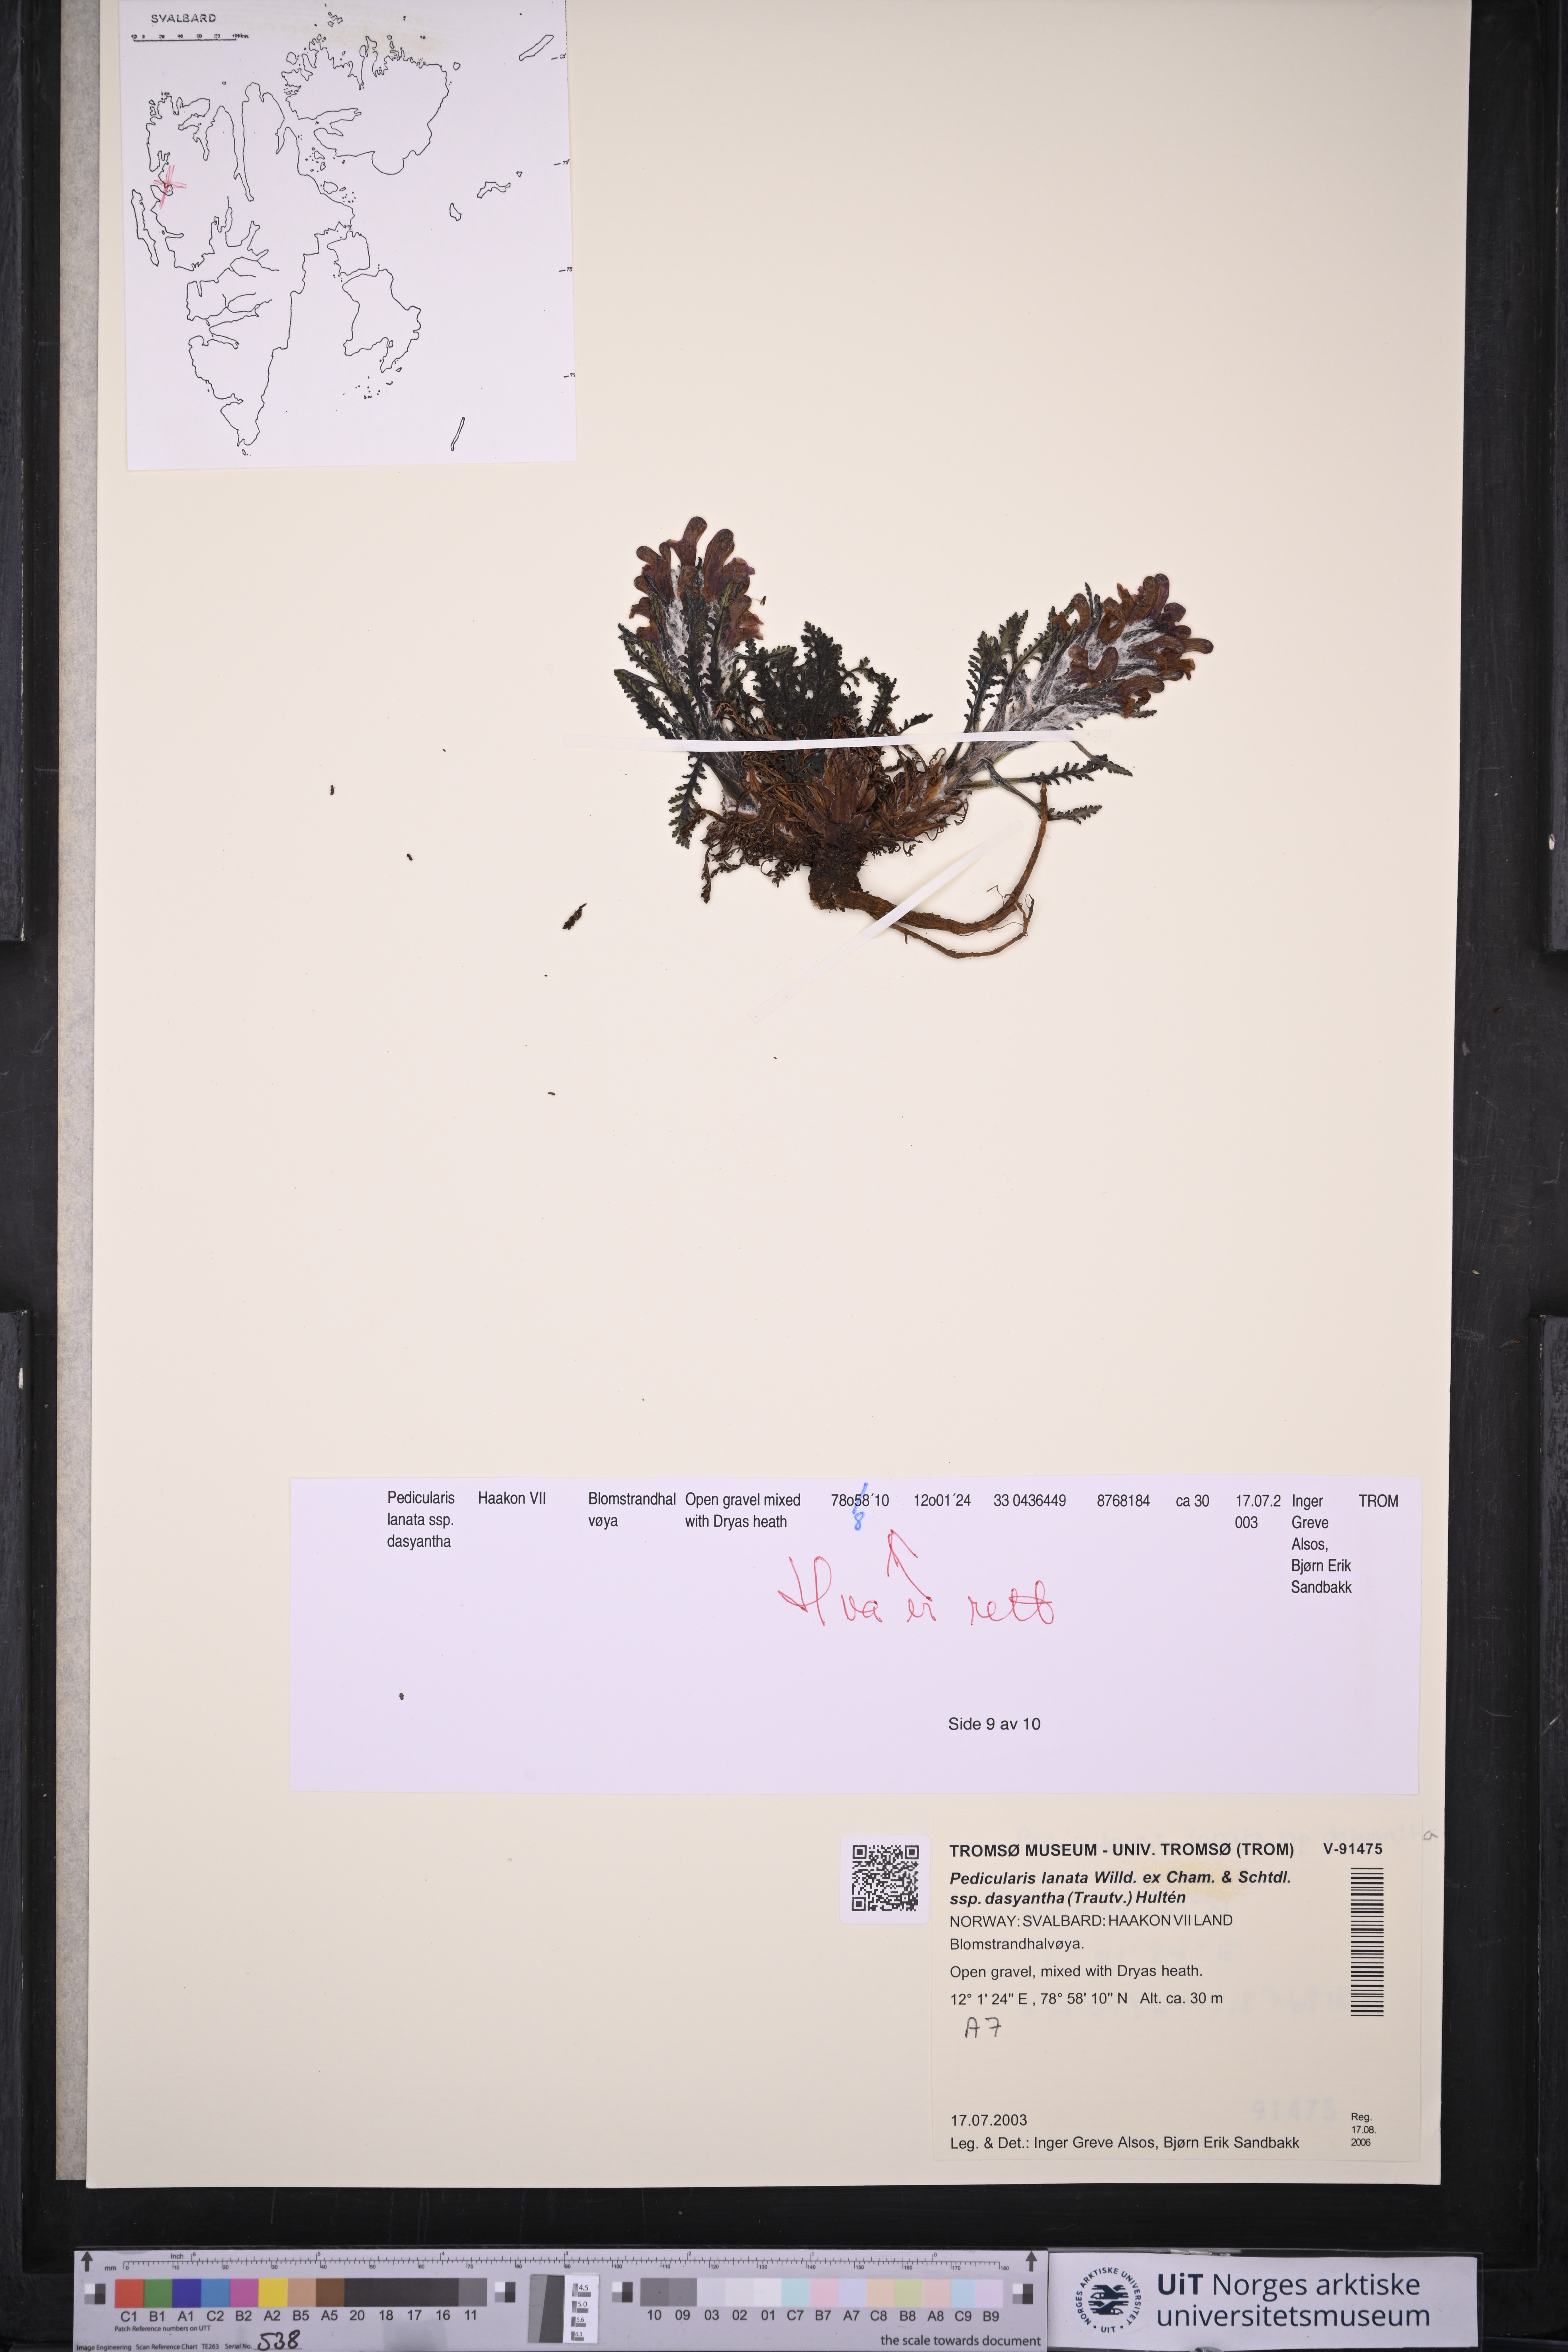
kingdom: Plantae
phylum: Tracheophyta
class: Magnoliopsida
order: Lamiales
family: Orobanchaceae
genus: Pedicularis
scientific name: Pedicularis dasyantha
